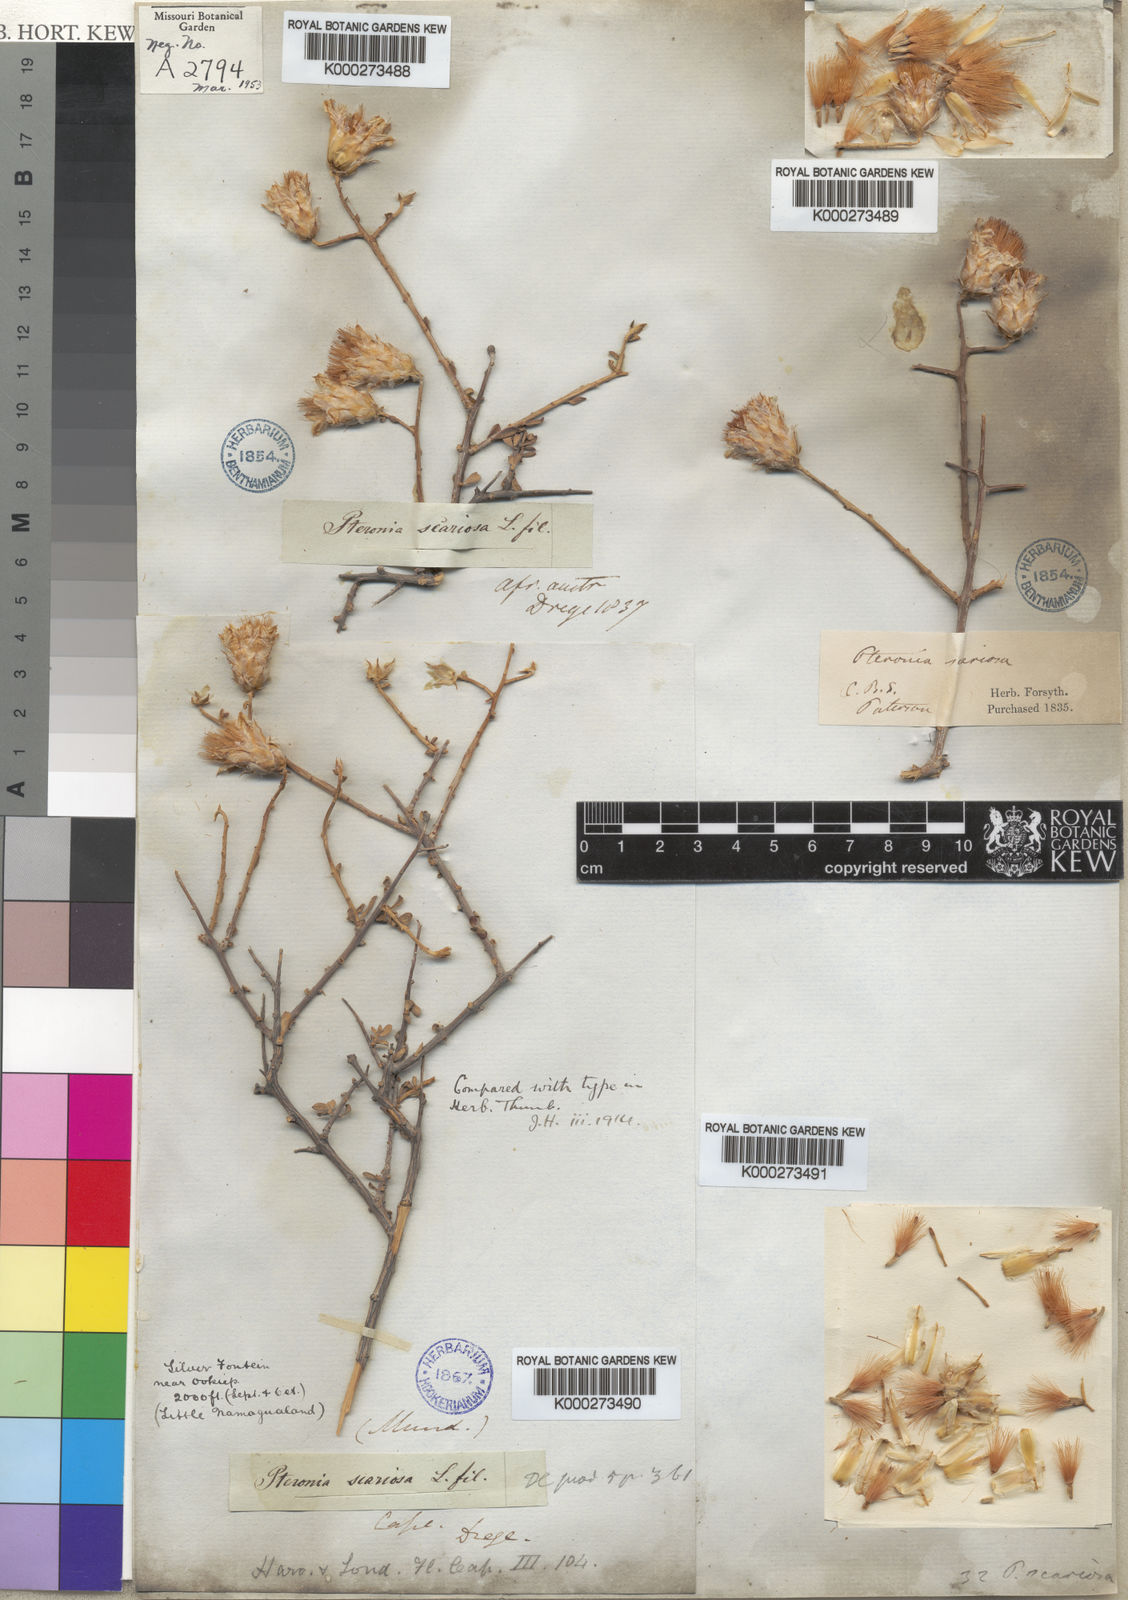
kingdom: Plantae
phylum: Tracheophyta
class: Magnoliopsida
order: Asterales
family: Asteraceae
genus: Pteronia
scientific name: Pteronia scariosa
